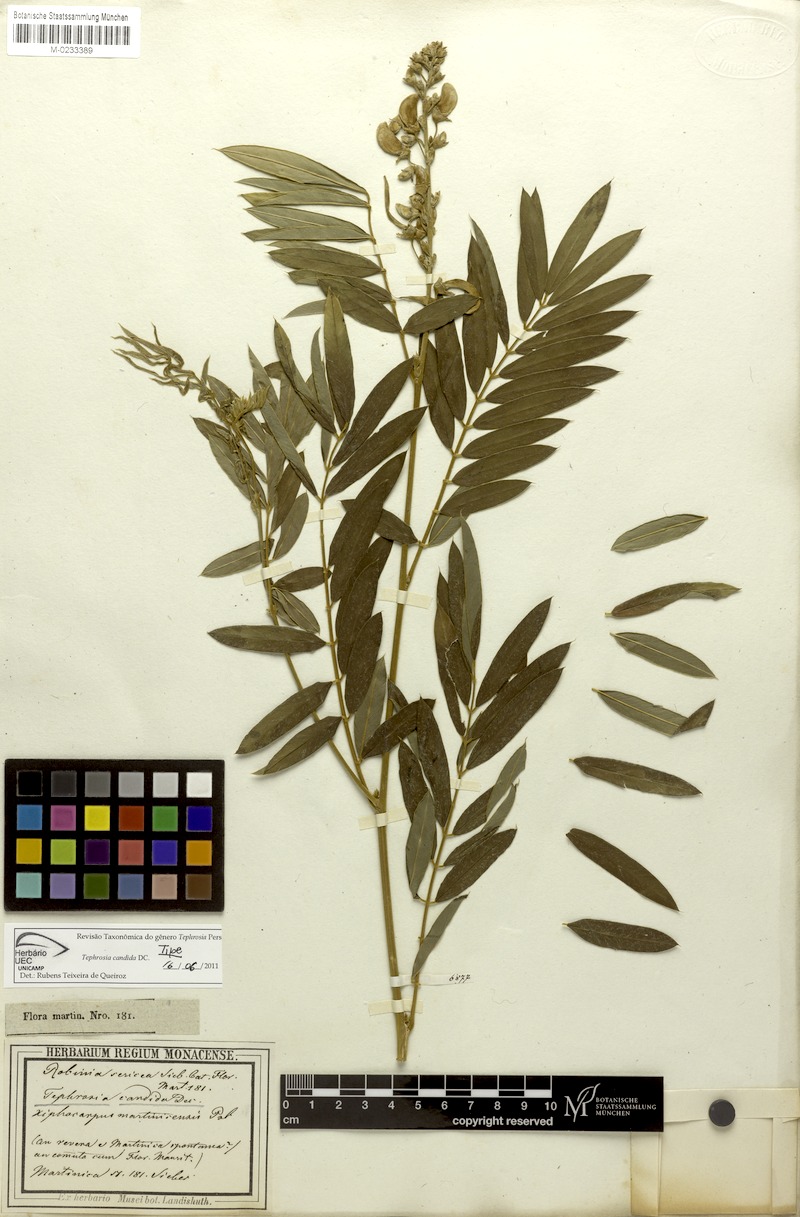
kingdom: Plantae
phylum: Tracheophyta
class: Magnoliopsida
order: Fabales
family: Fabaceae
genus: Tephrosia
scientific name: Tephrosia candida
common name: White tephrosia
